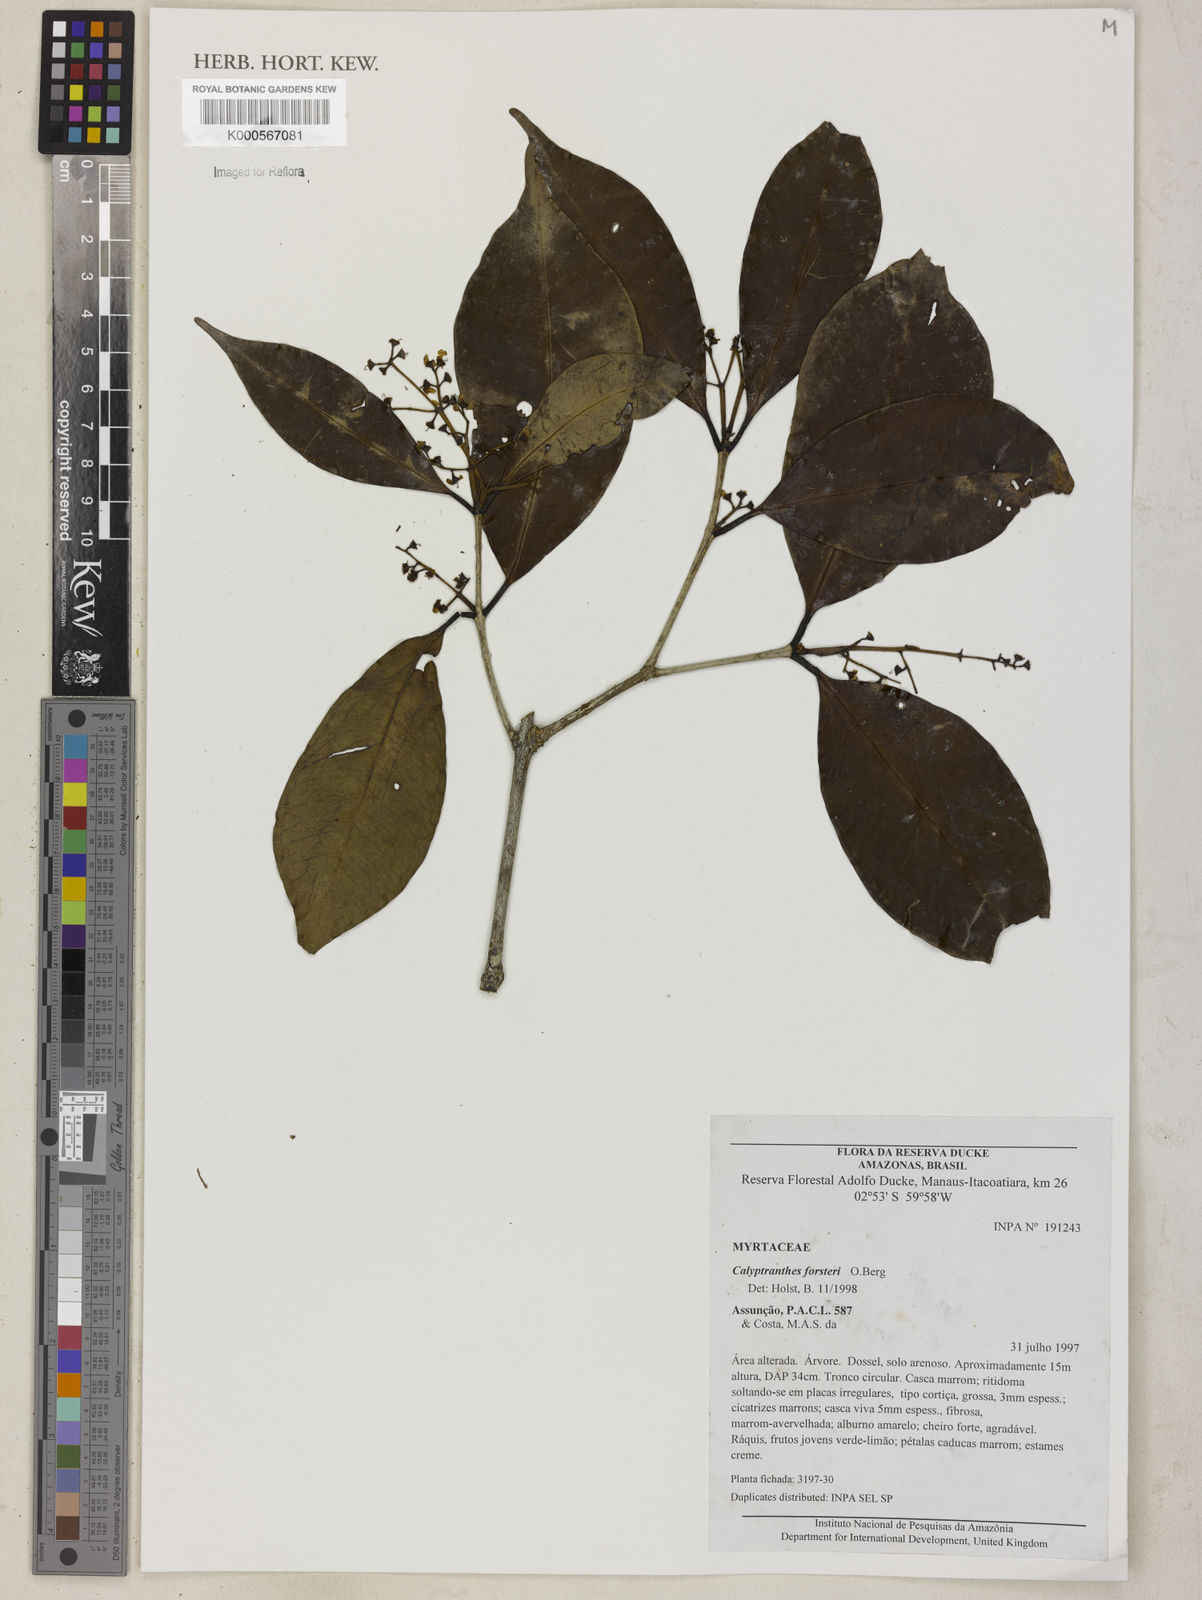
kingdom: Plantae
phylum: Tracheophyta
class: Magnoliopsida
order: Myrtales
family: Myrtaceae
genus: Myrcia
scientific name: Myrcia forsteri
